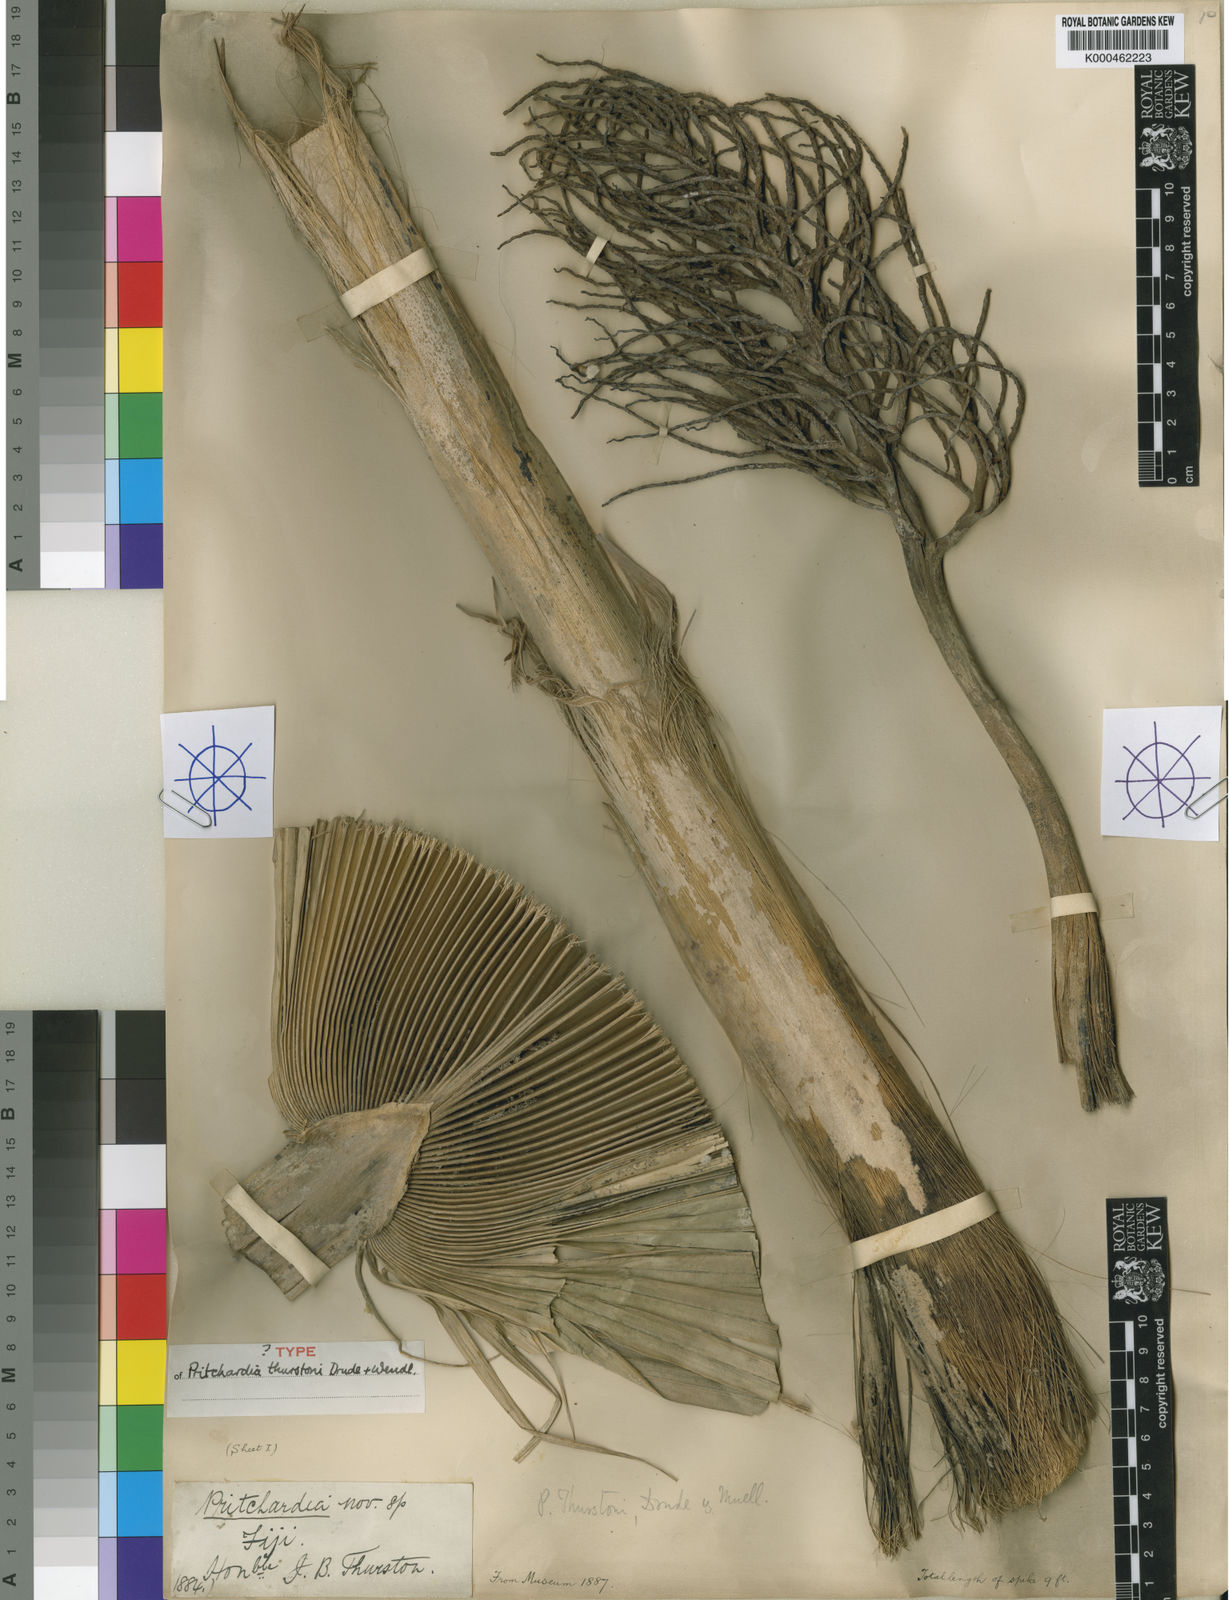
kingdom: Plantae
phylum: Tracheophyta
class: Liliopsida
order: Arecales
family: Arecaceae
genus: Pritchardia
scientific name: Pritchardia thurstonii
